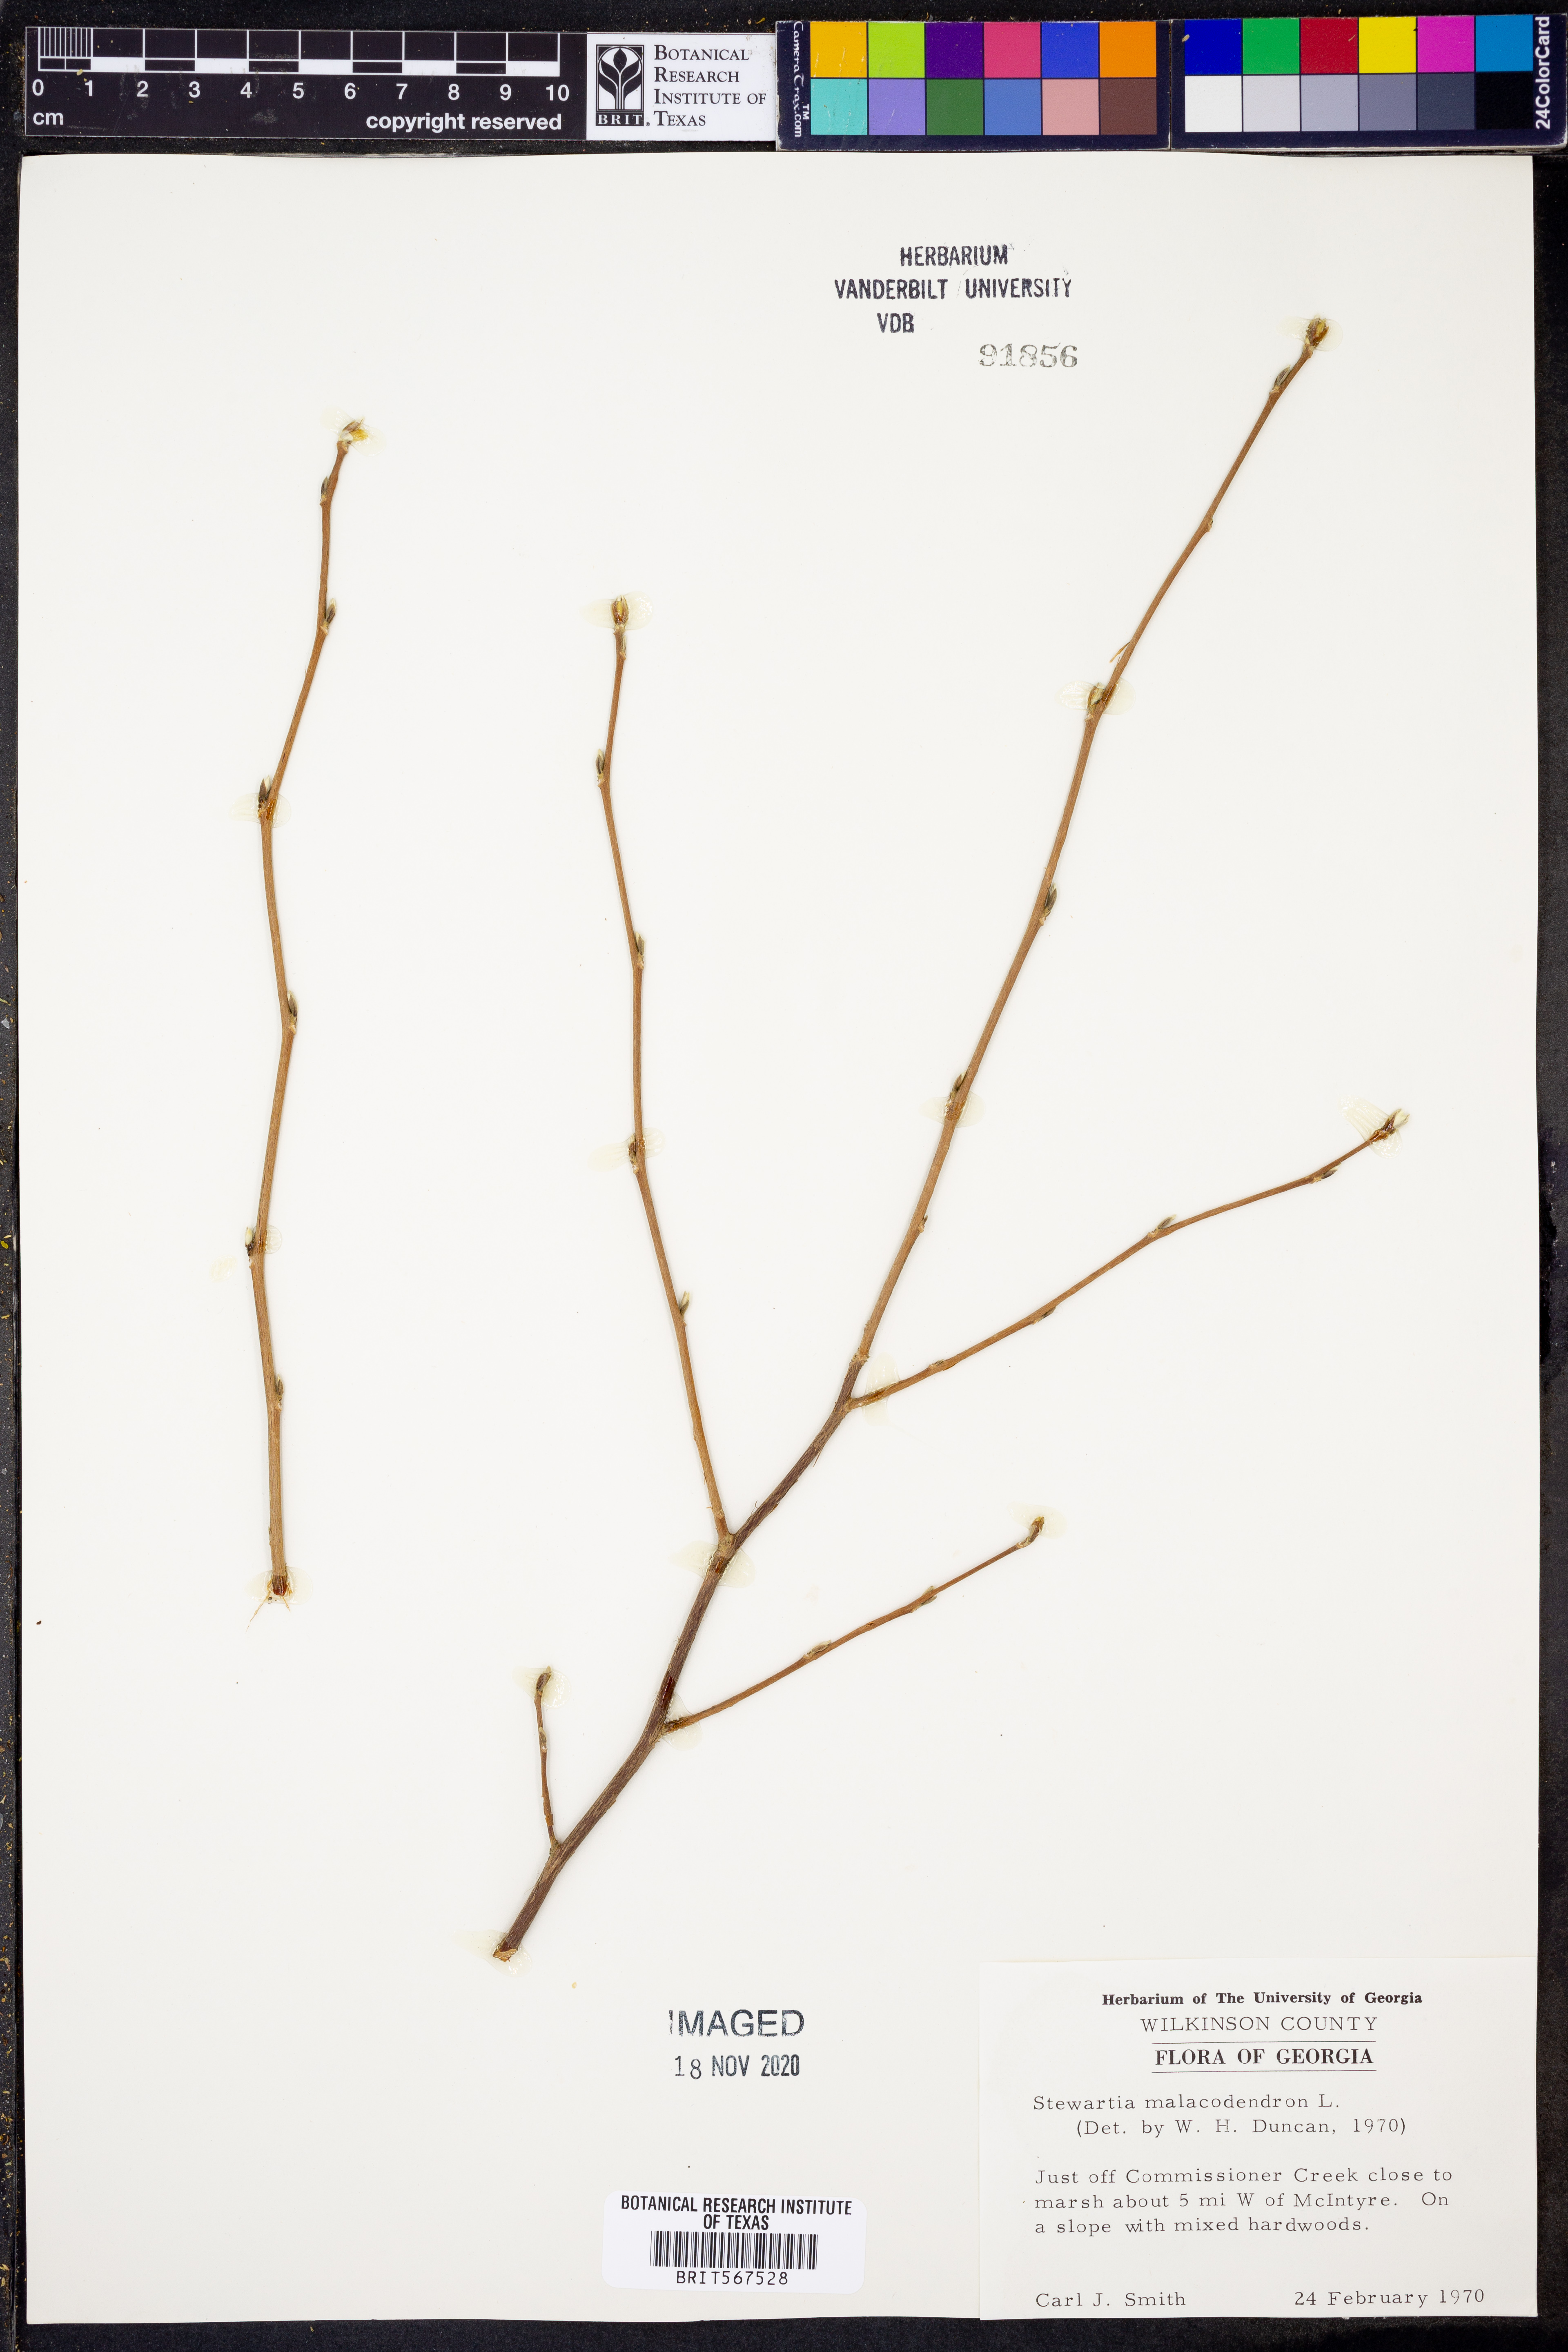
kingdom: Plantae
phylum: Tracheophyta
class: Magnoliopsida
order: Ericales
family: Theaceae
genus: Stewartia
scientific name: Stewartia malacodendron
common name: Virginia stewartia
